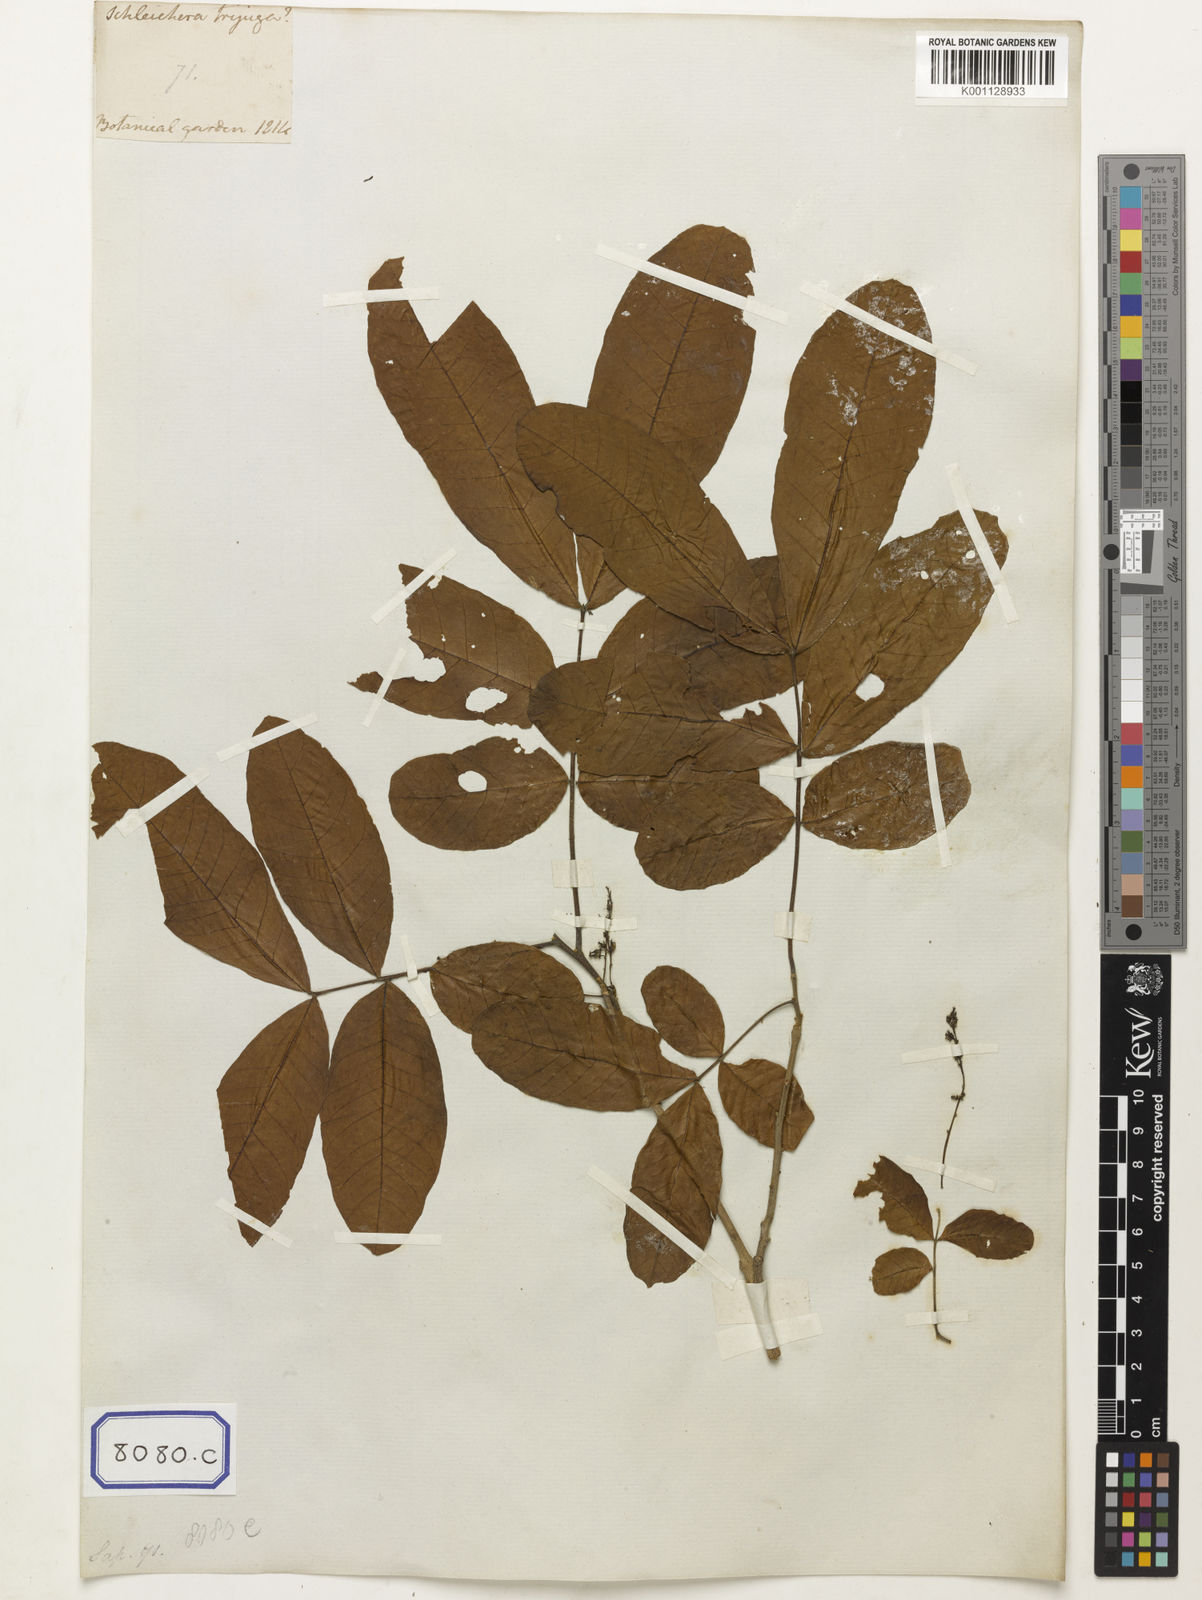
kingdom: Plantae
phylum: Tracheophyta
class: Magnoliopsida
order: Sapindales
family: Sapindaceae
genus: Schleichera
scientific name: Schleichera oleosa
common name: Malay lactree
